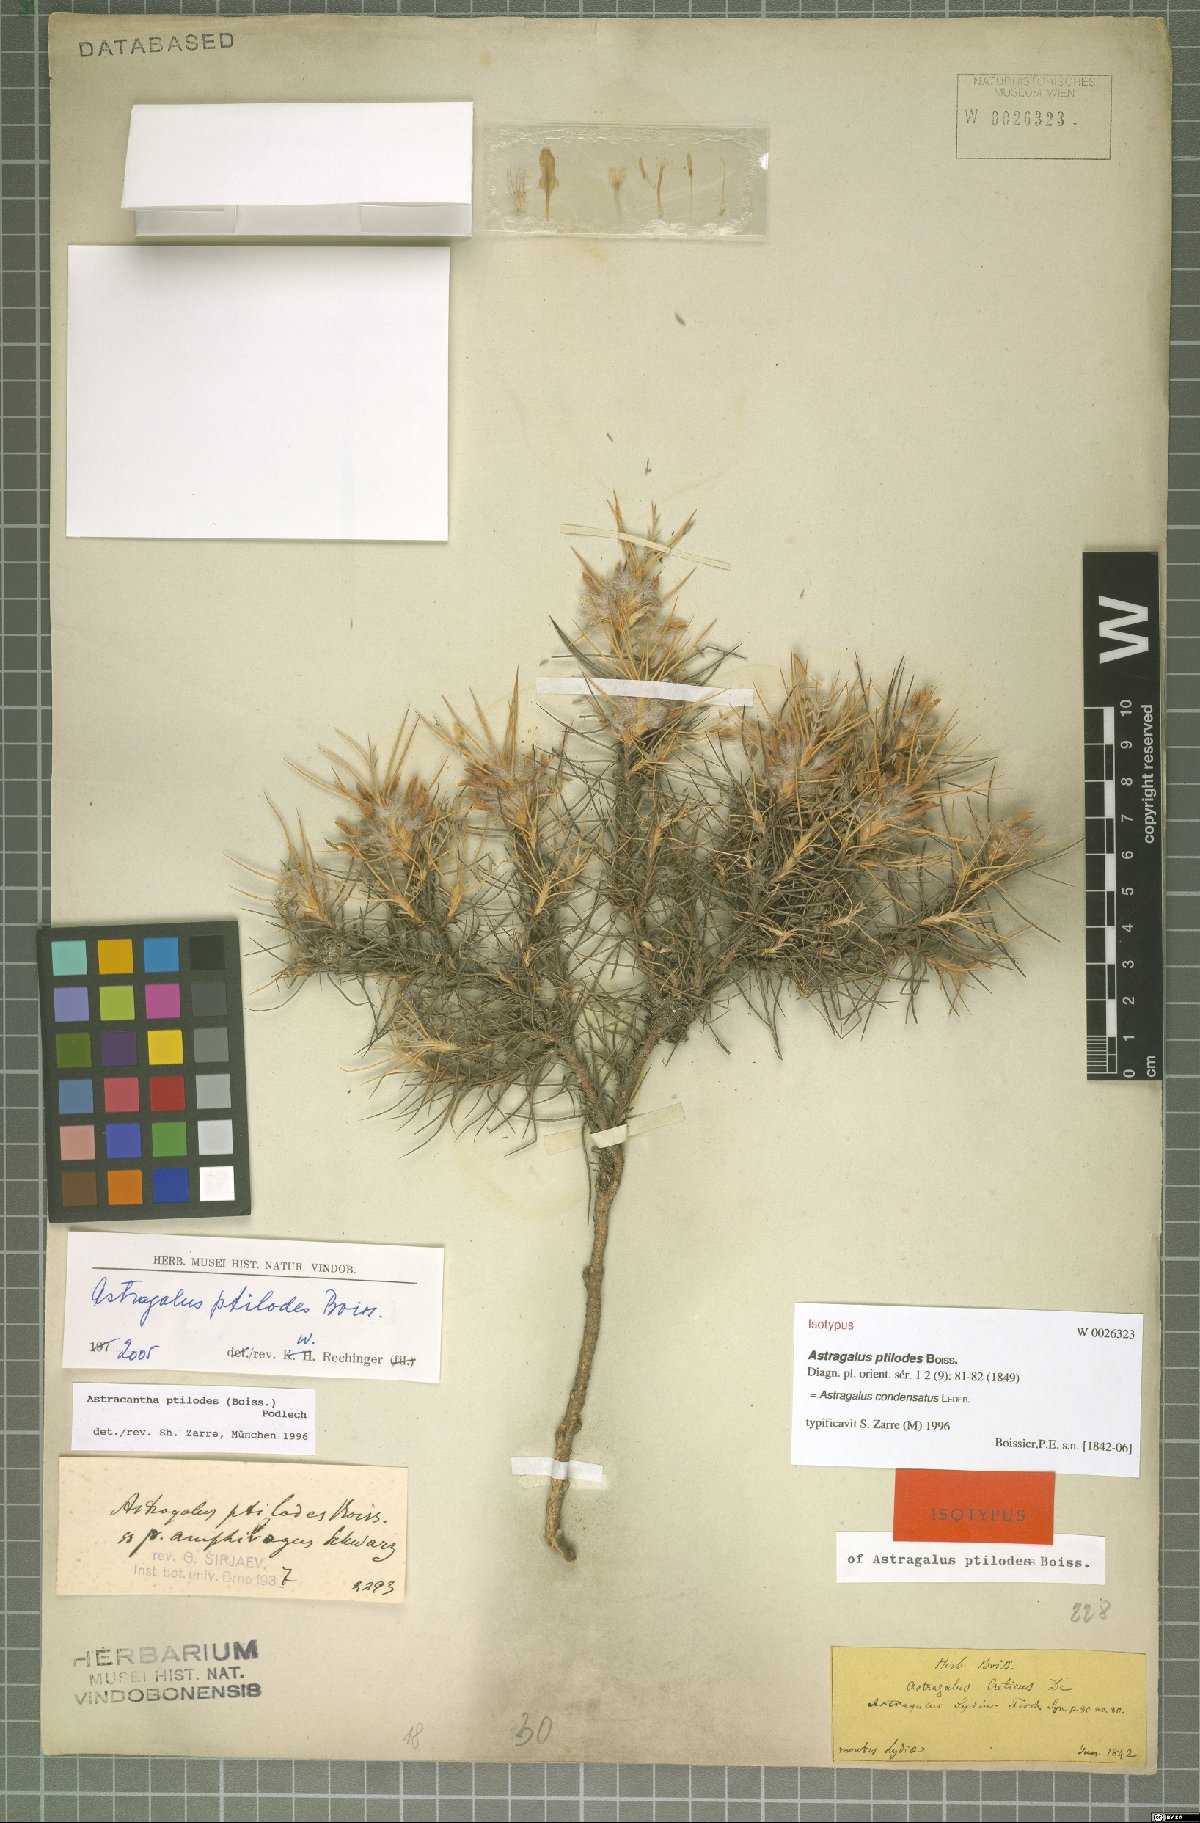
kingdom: Plantae
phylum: Tracheophyta
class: Magnoliopsida
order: Fabales
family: Fabaceae
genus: Astragalus
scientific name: Astragalus condensatus
